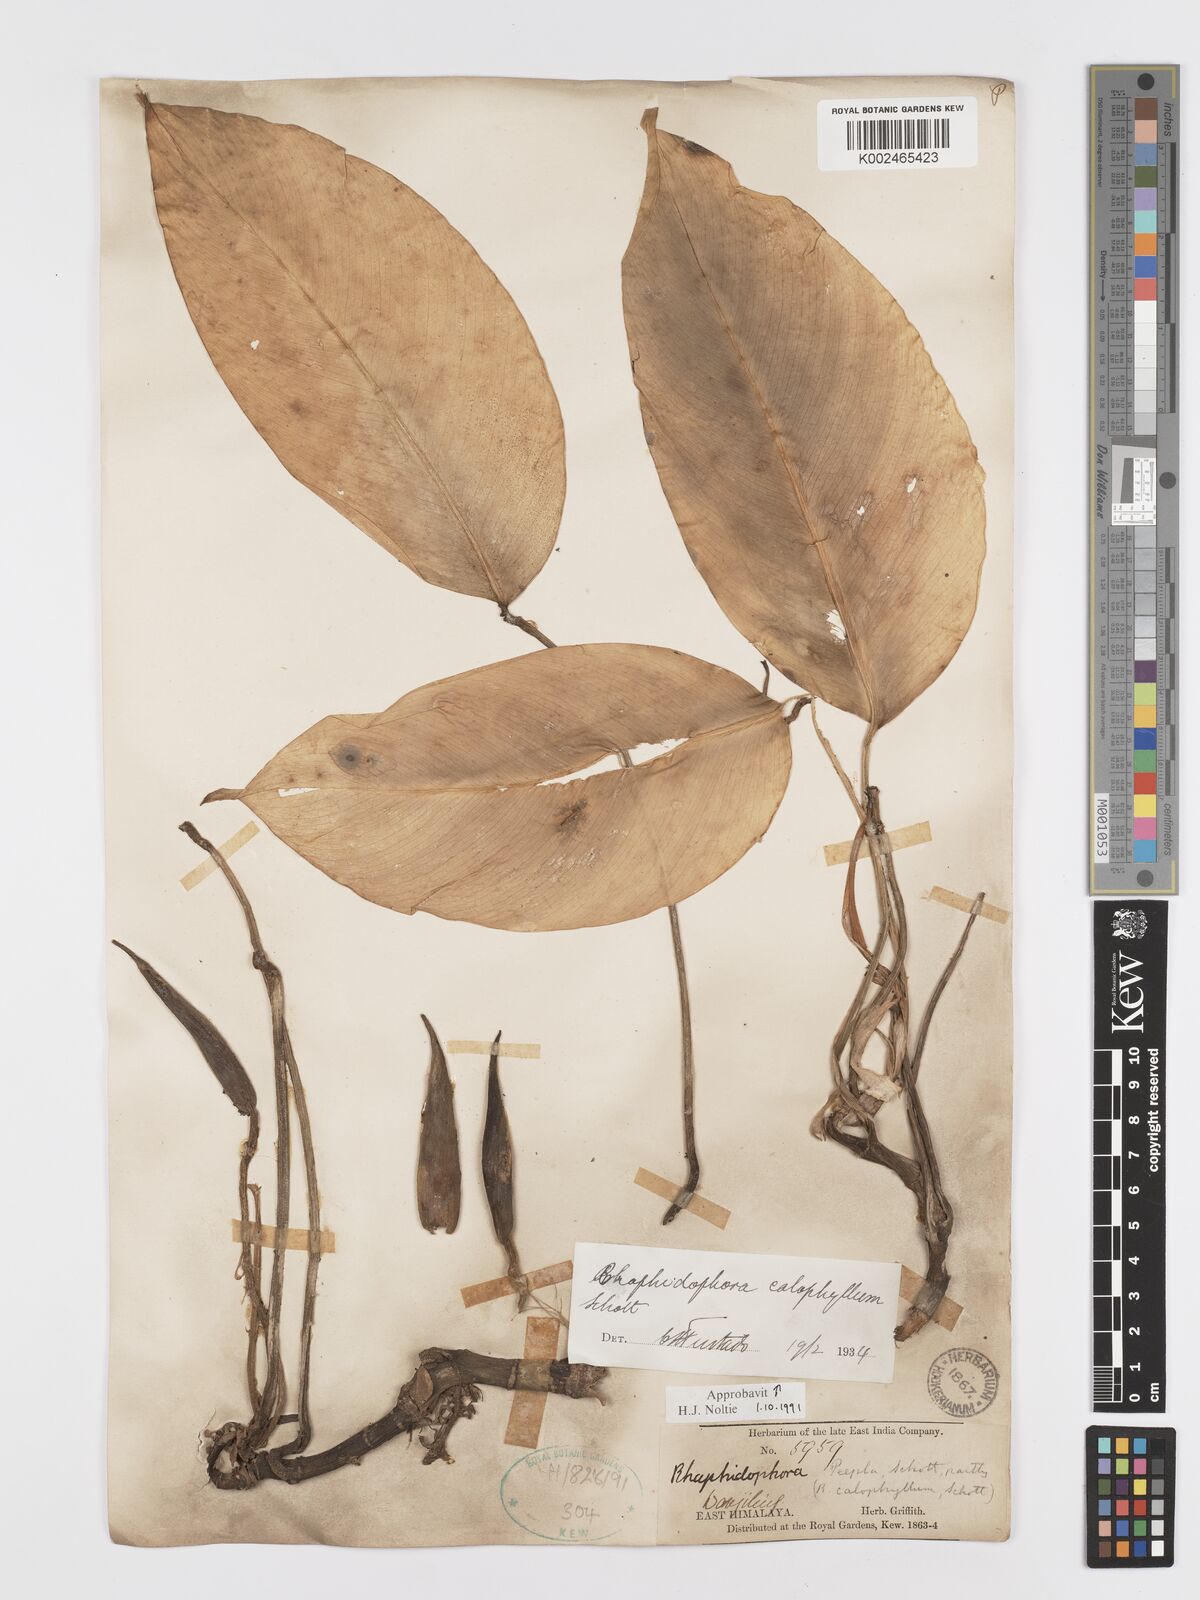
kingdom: Plantae
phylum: Tracheophyta
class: Liliopsida
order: Alismatales
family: Araceae
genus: Rhaphidophora
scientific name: Rhaphidophora calophylla
